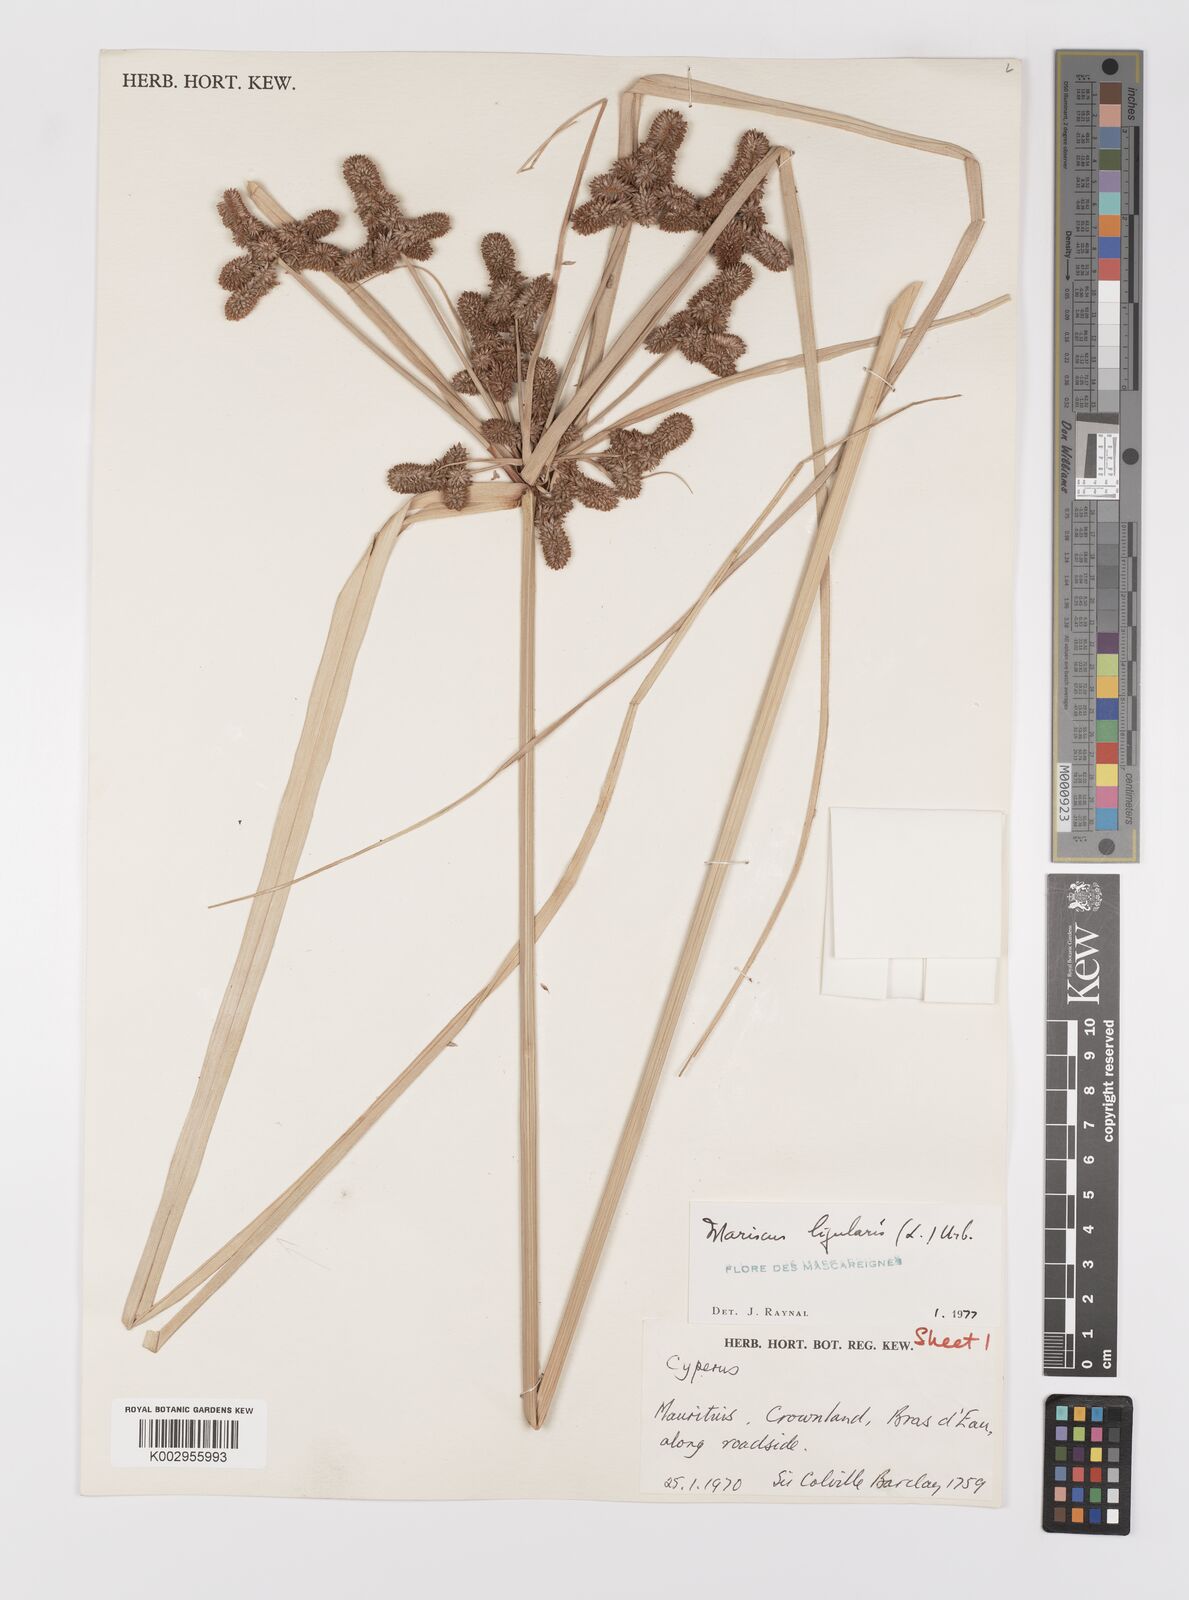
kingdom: Plantae
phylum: Tracheophyta
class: Liliopsida
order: Poales
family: Cyperaceae
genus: Cyperus
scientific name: Cyperus ligularis
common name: Swamp flat sedge
